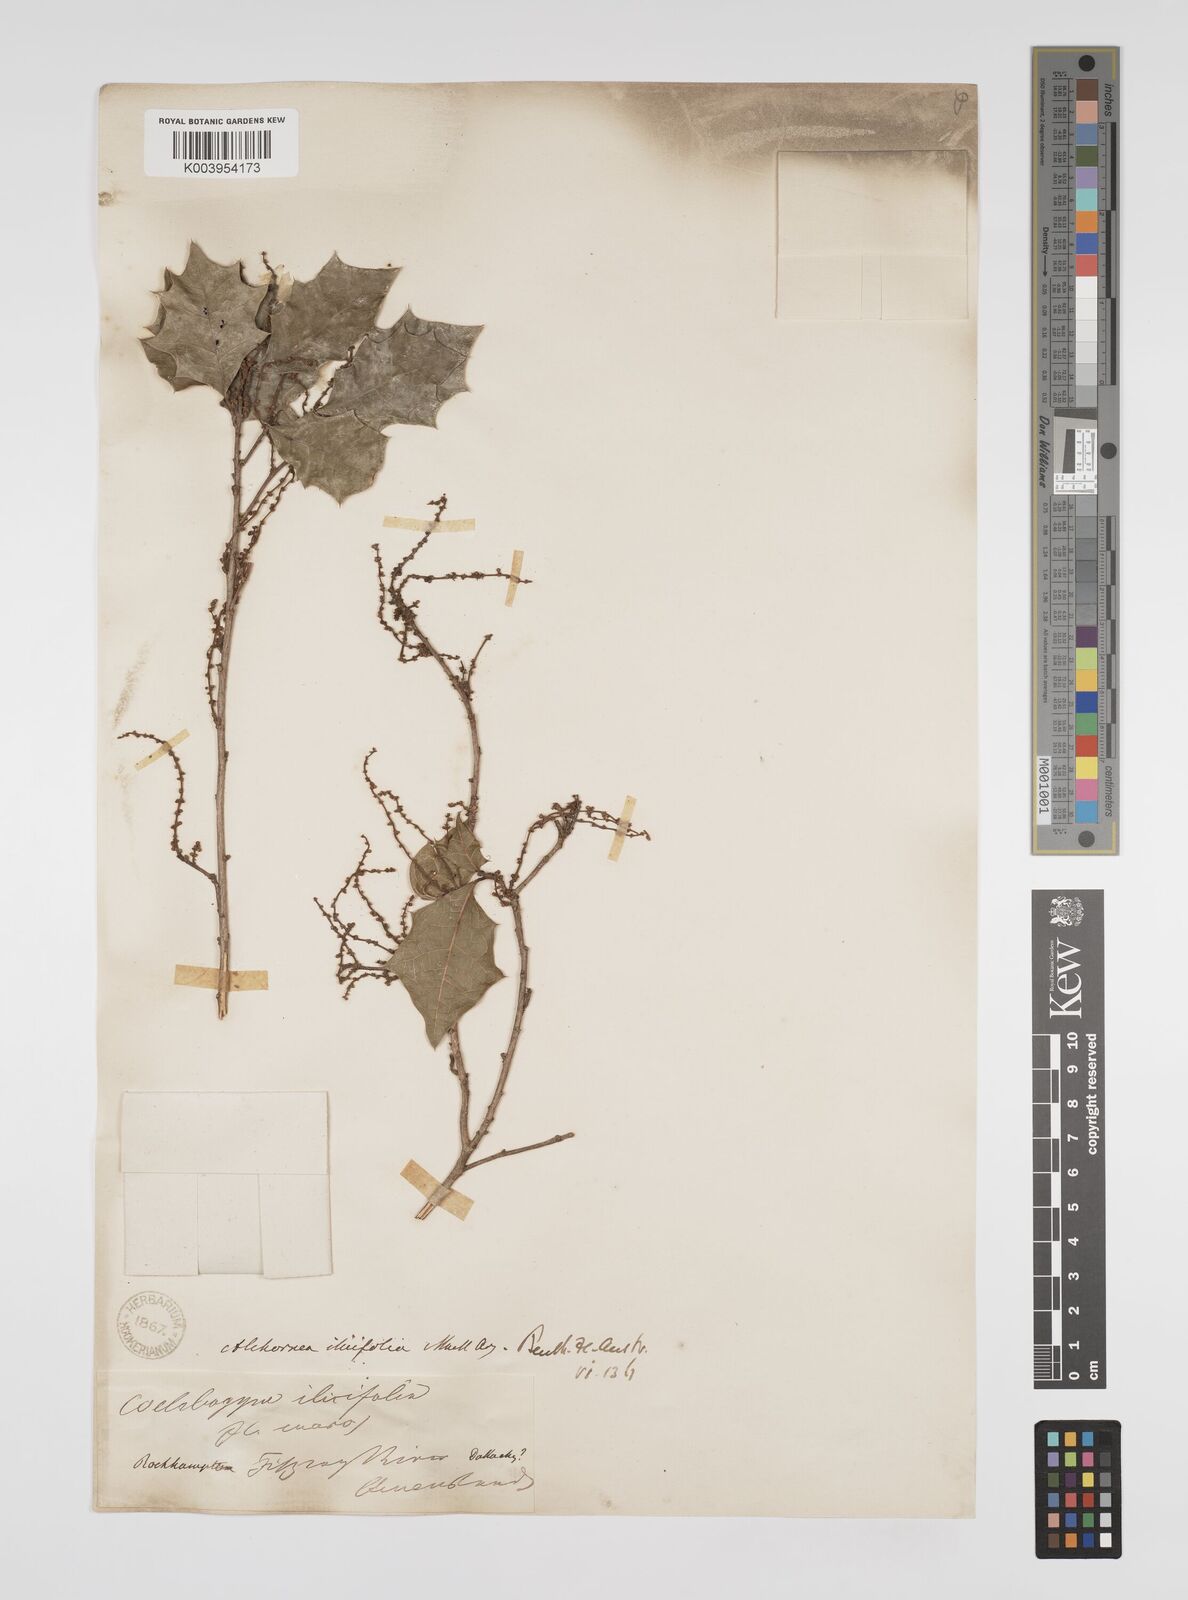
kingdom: Plantae
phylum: Tracheophyta
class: Magnoliopsida
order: Malpighiales
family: Euphorbiaceae
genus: Alchornea
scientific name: Alchornea ilicifolia
